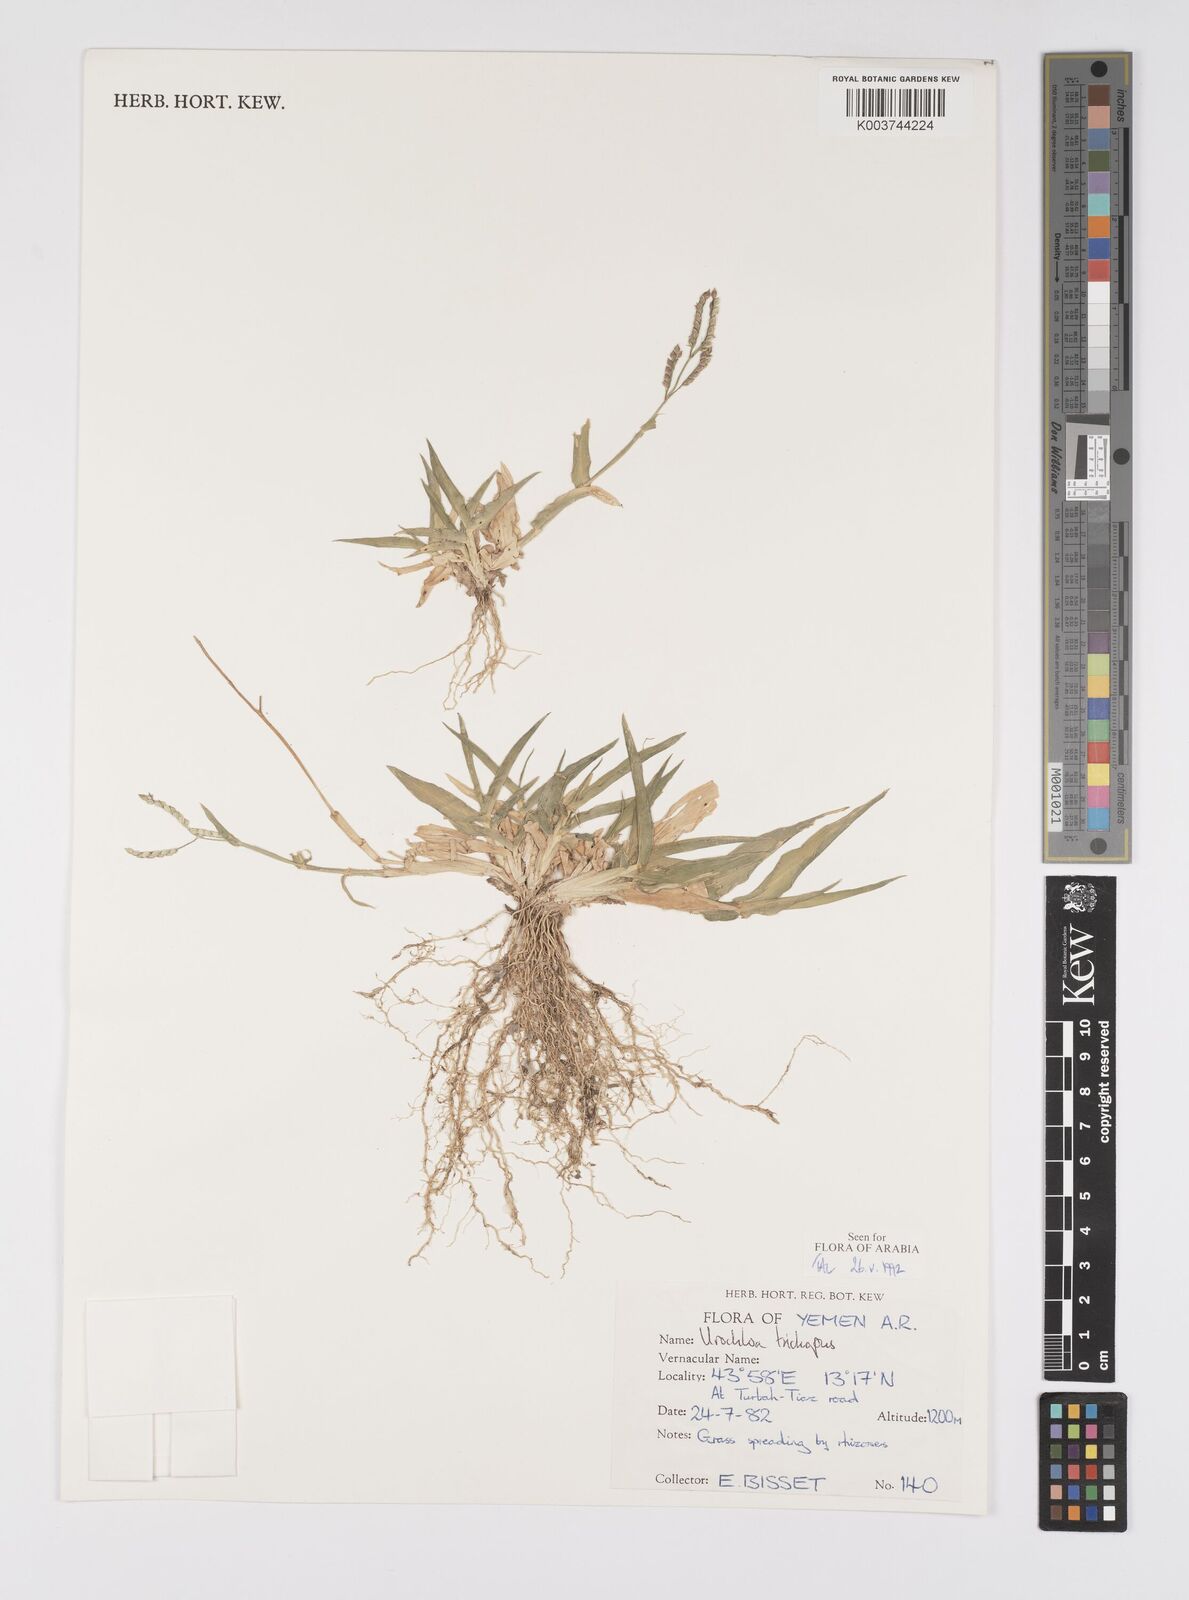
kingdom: Plantae
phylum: Tracheophyta
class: Liliopsida
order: Poales
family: Poaceae
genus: Urochloa
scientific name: Urochloa trichopus
